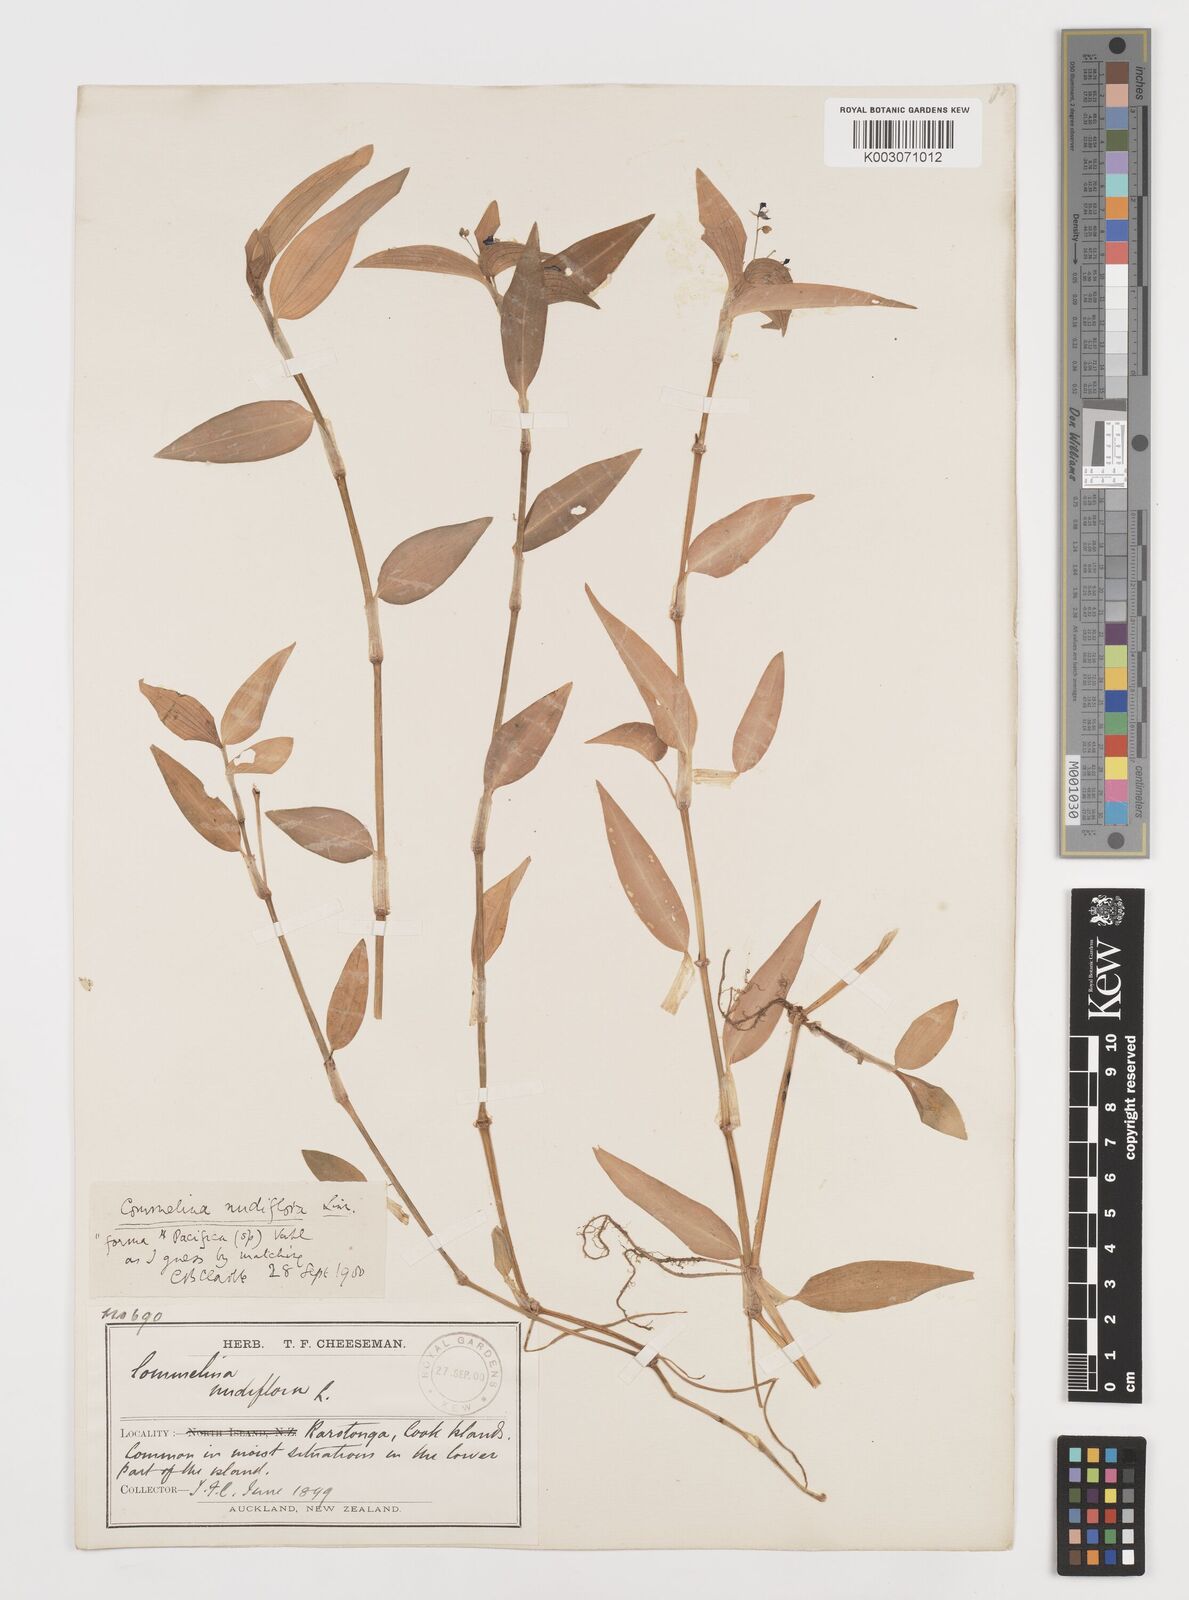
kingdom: Plantae
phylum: Tracheophyta
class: Liliopsida
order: Commelinales
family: Commelinaceae
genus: Murdannia
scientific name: Murdannia nudiflora
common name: Nakedstem dewflower
